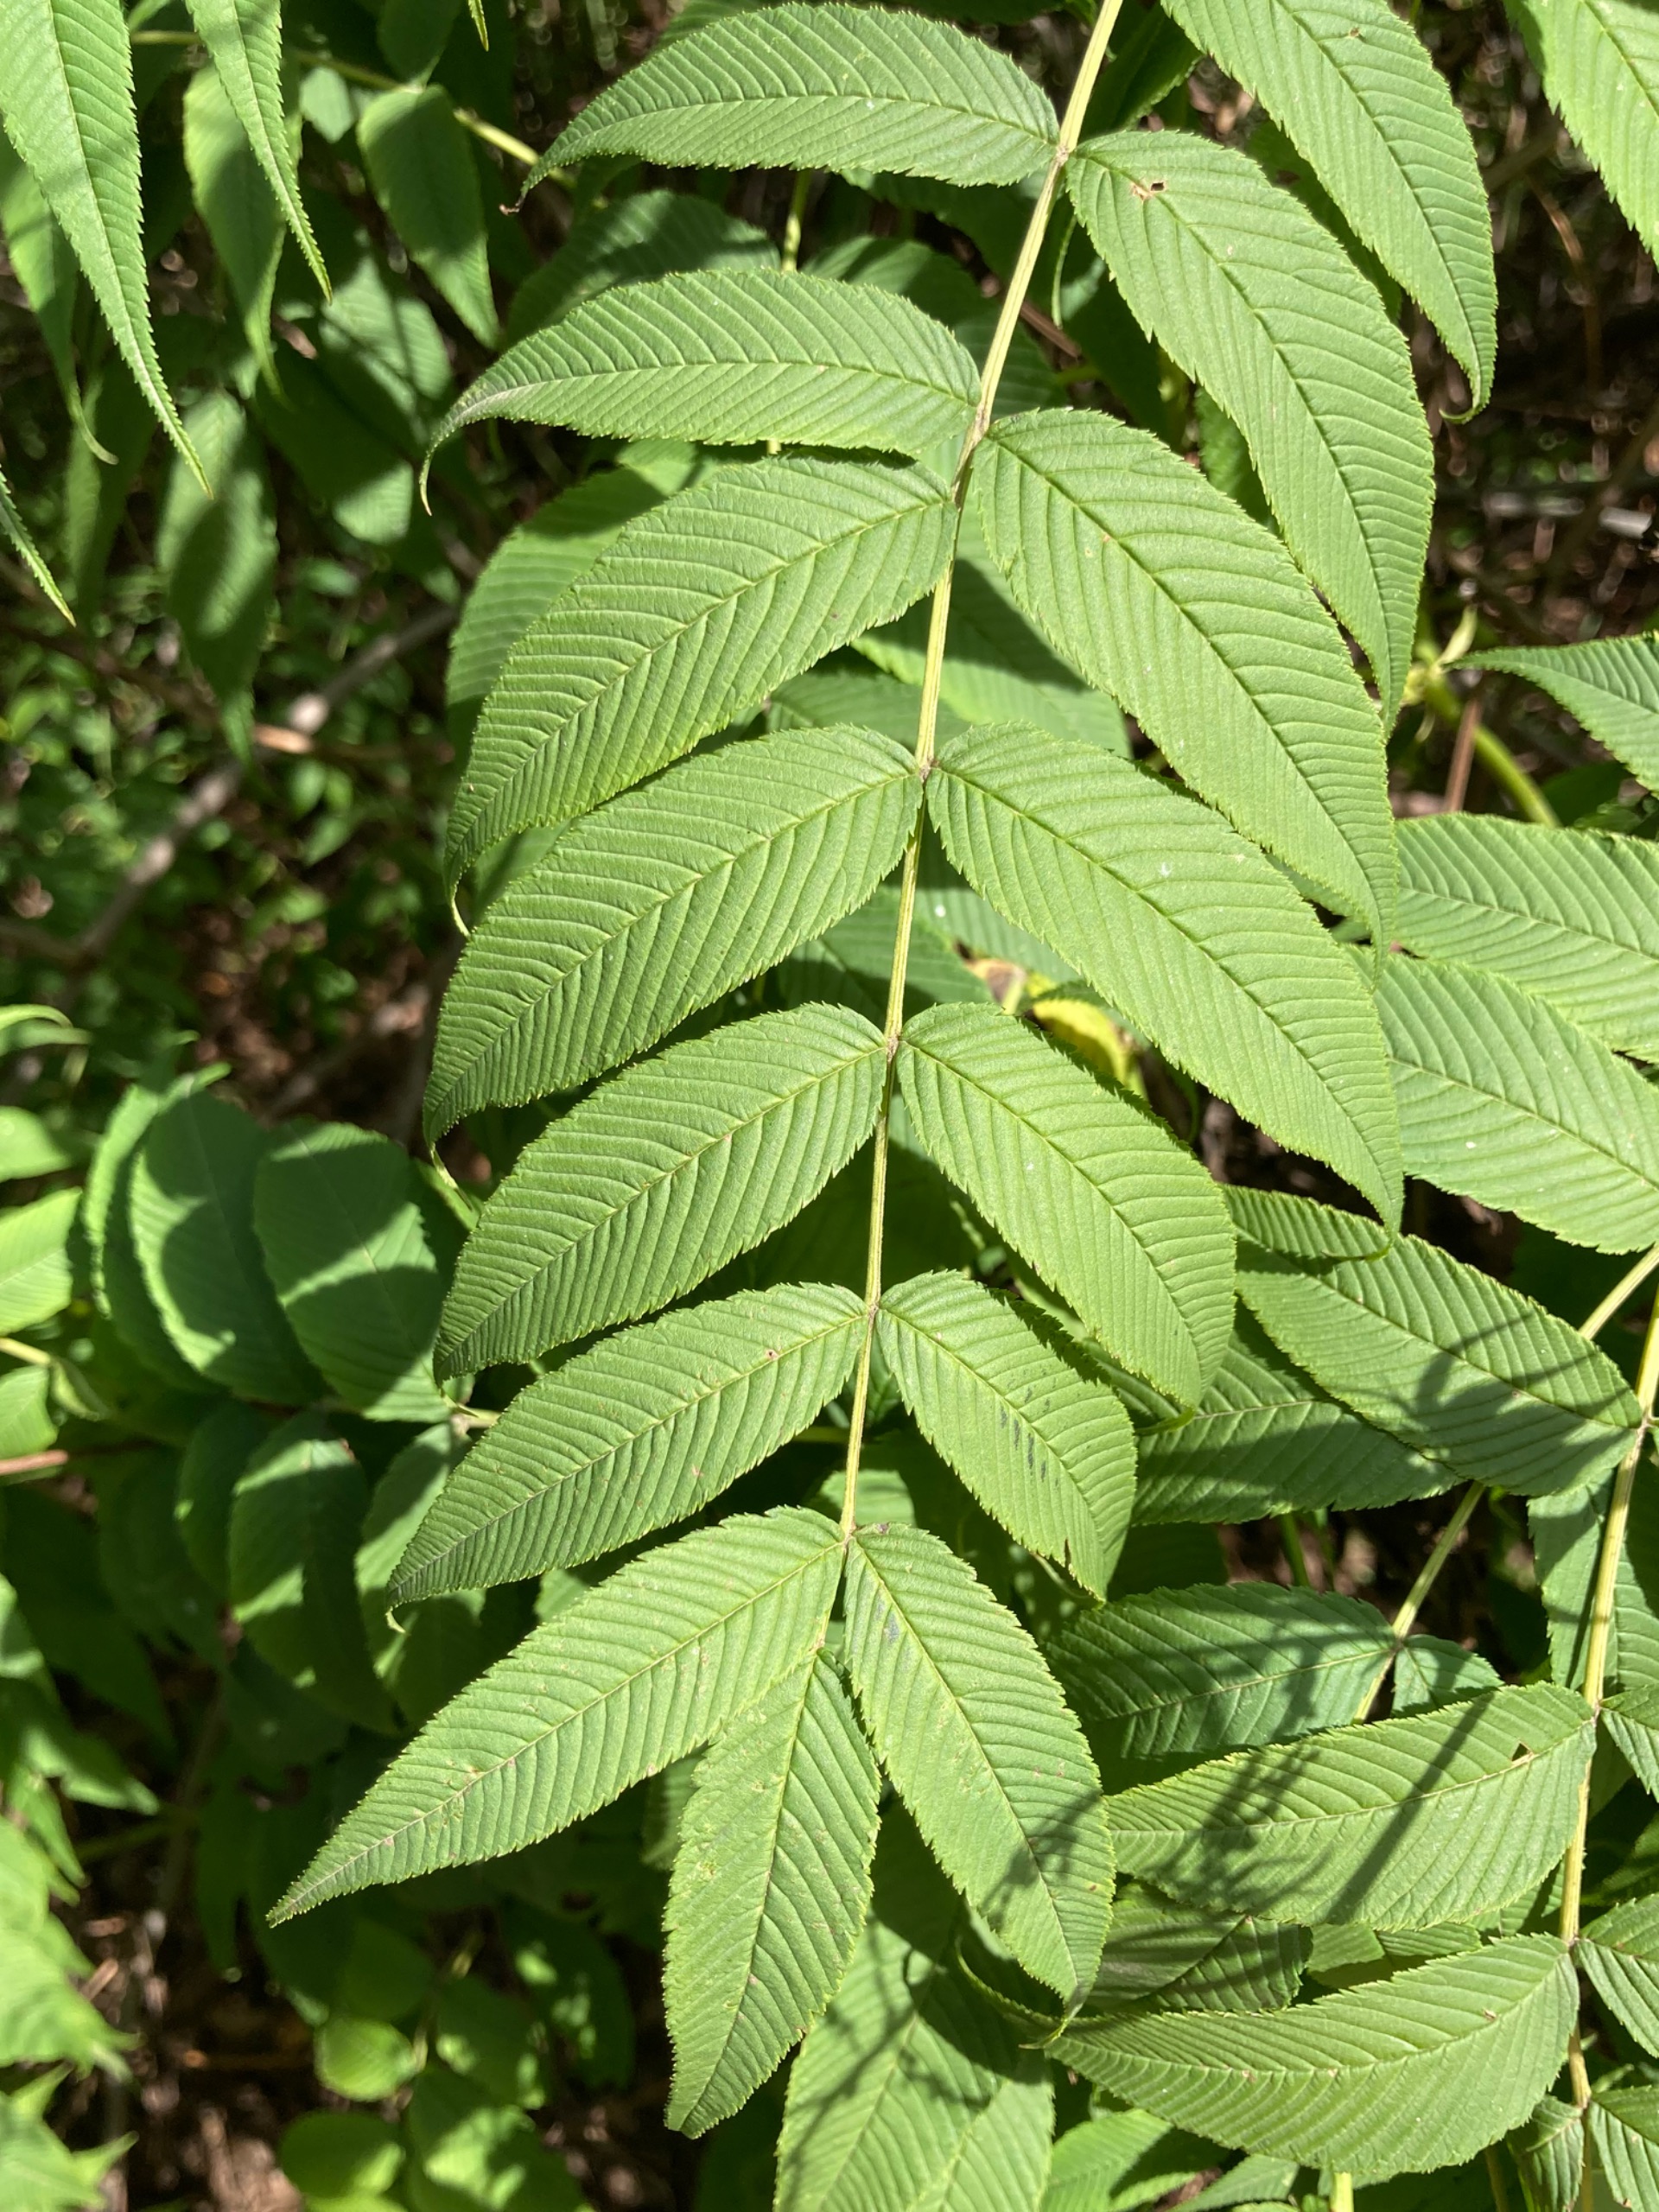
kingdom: Plantae
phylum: Tracheophyta
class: Magnoliopsida
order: Rosales
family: Rosaceae
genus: Sorbaria
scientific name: Sorbaria
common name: Tusindtopslægten
